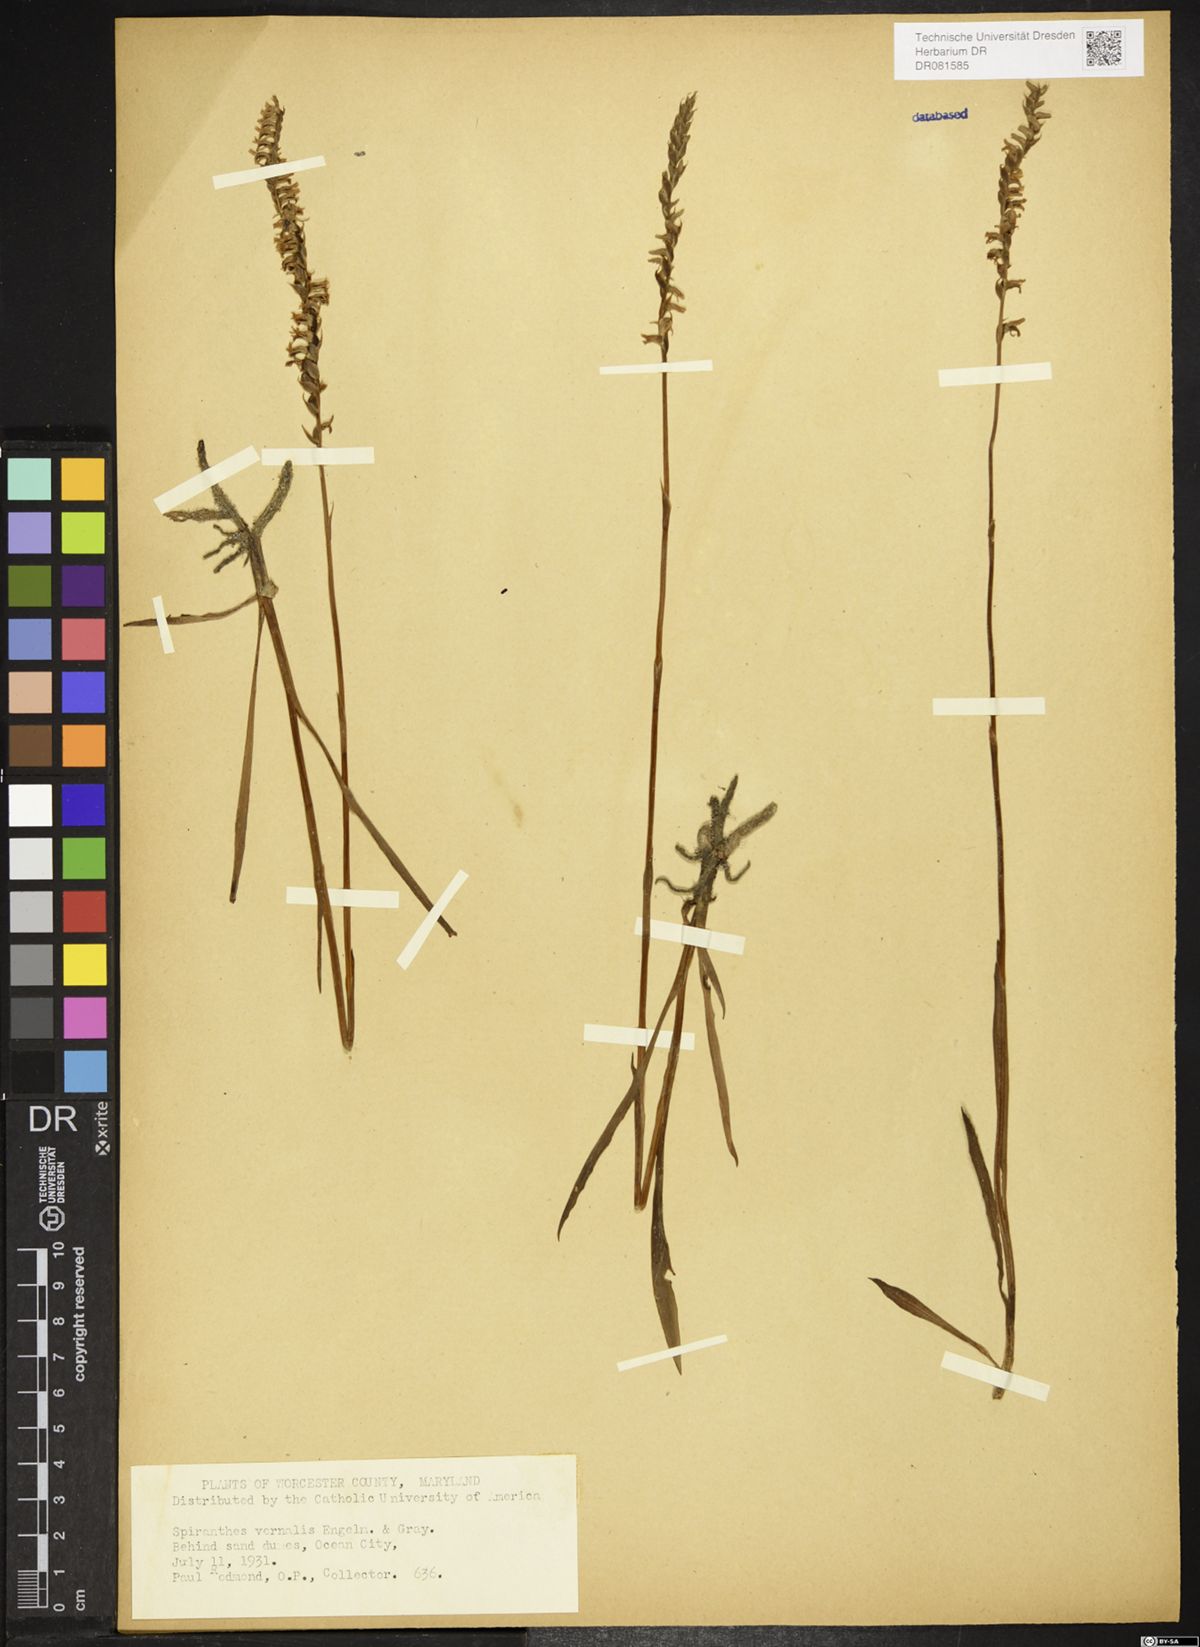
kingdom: Plantae
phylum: Tracheophyta
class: Liliopsida
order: Asparagales
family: Orchidaceae
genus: Spiranthes
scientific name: Spiranthes vernalis
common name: Spring ladies'-tresses
